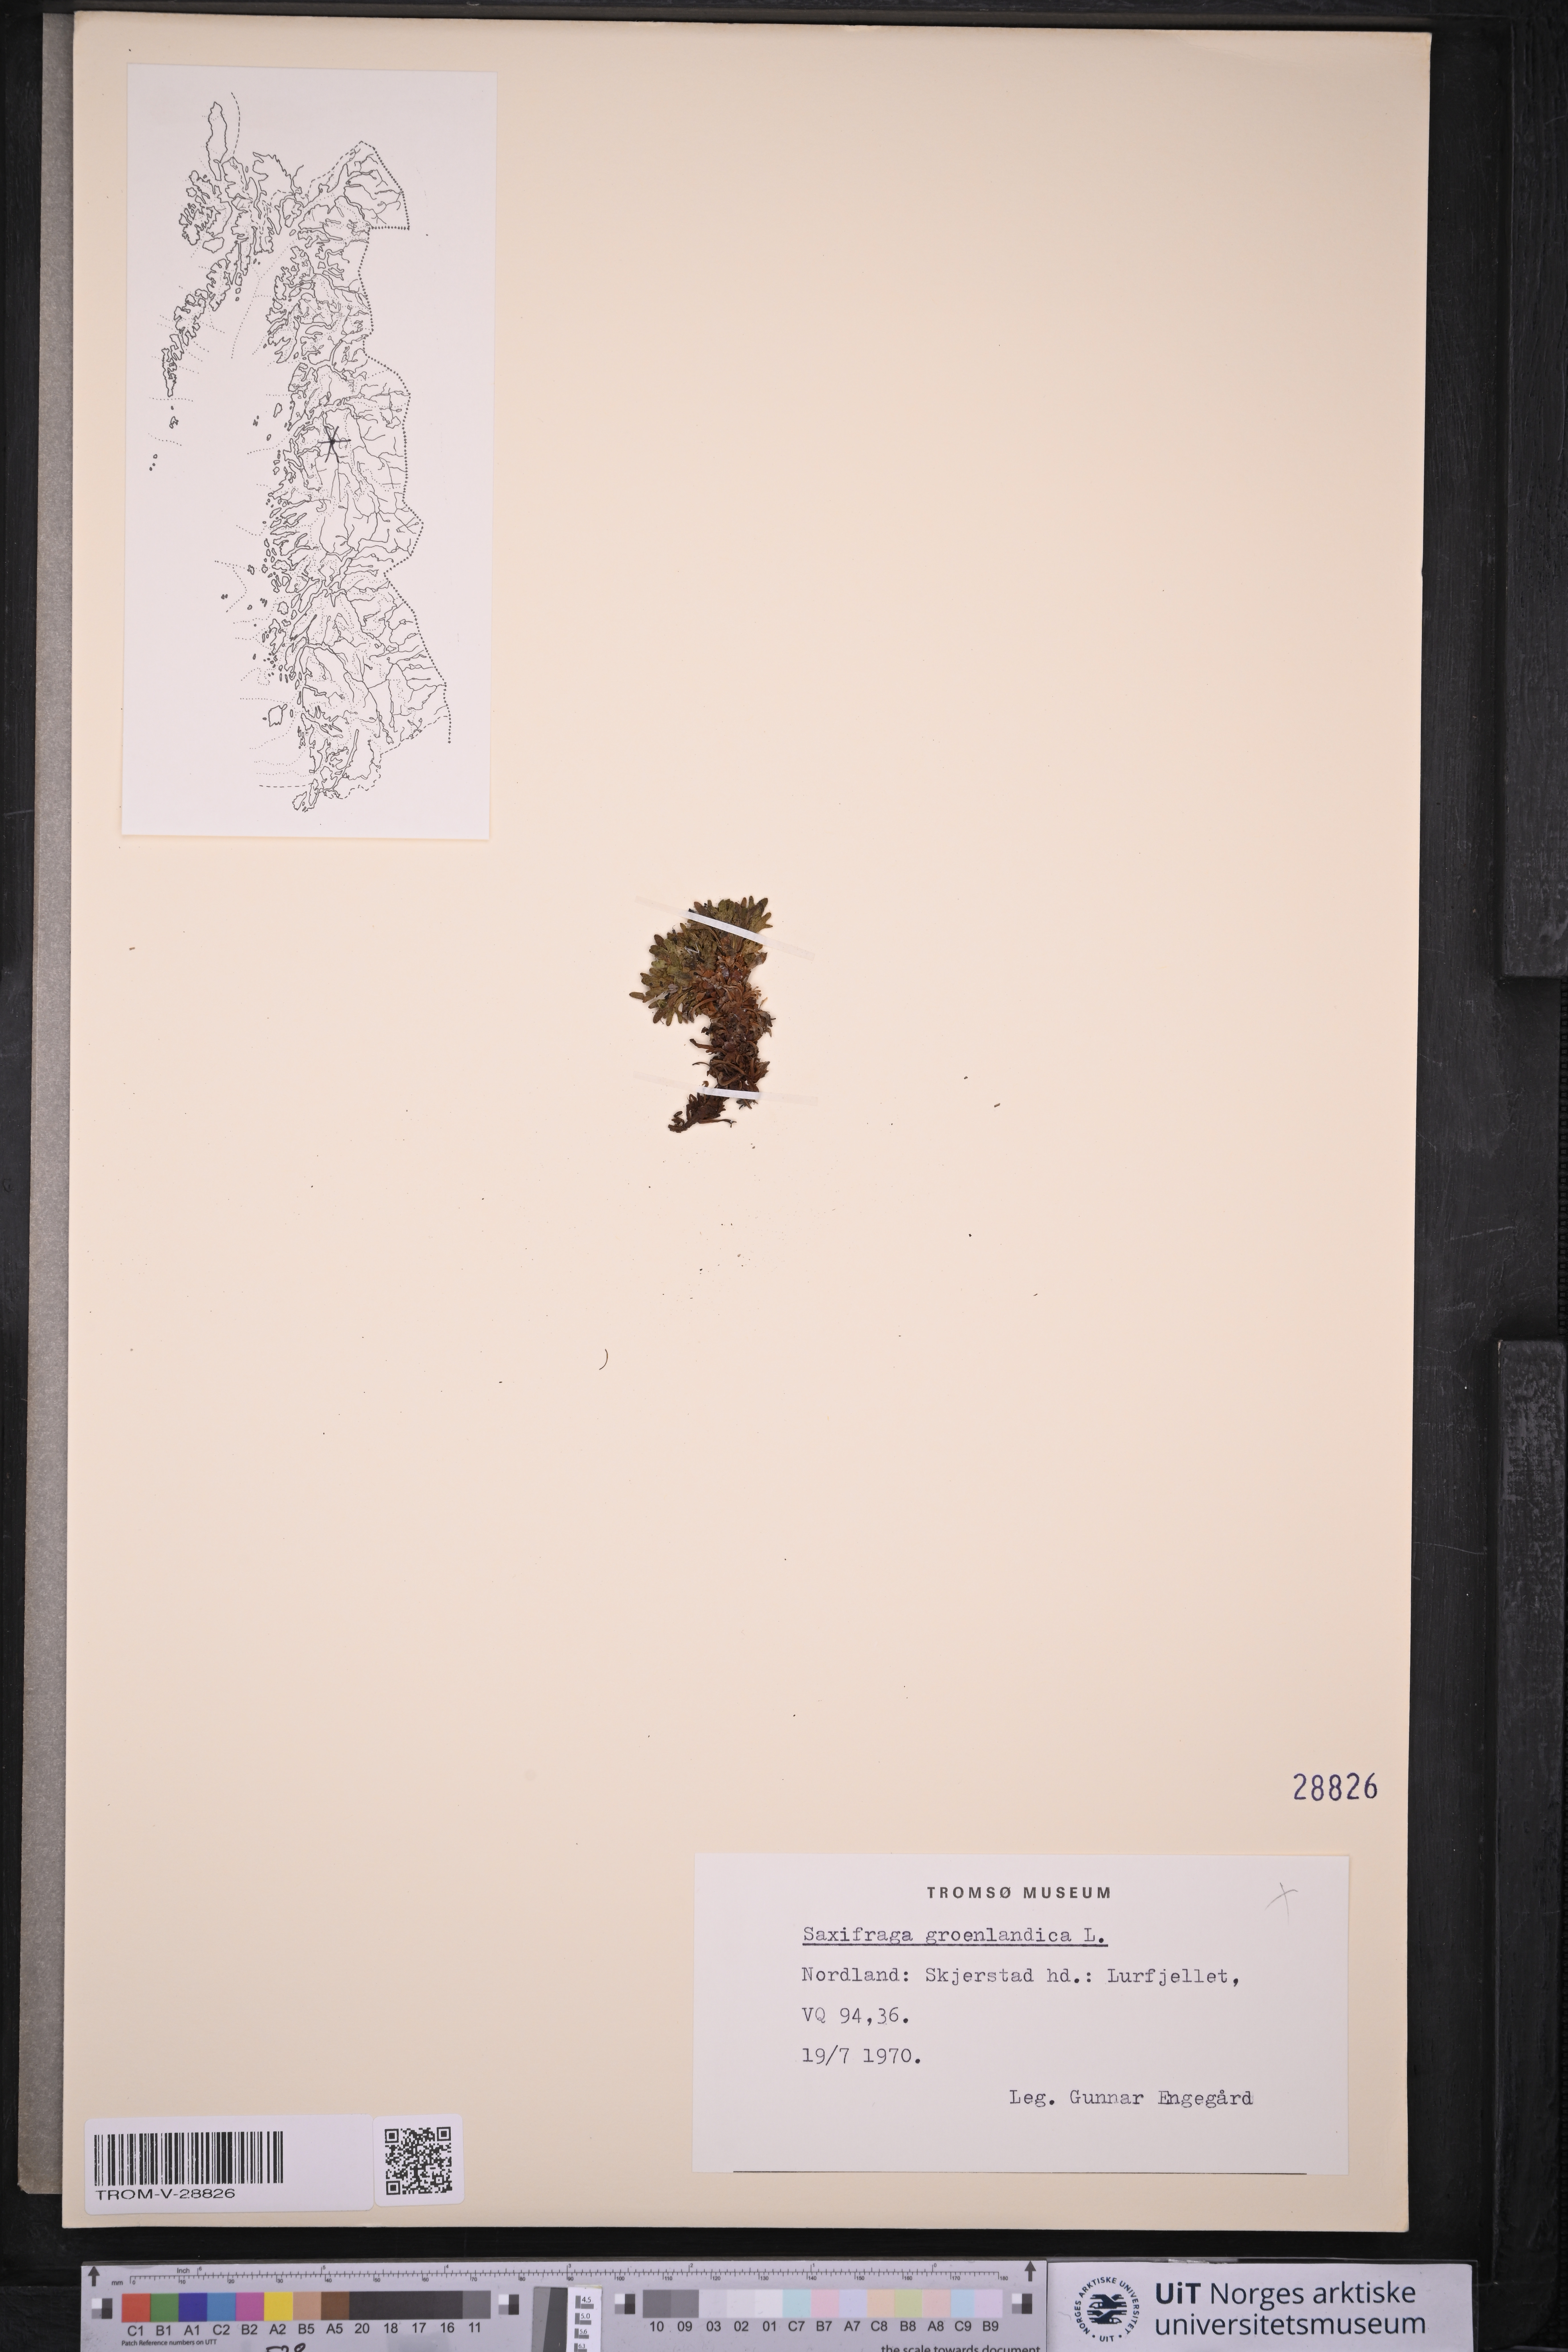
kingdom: Plantae
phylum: Tracheophyta
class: Magnoliopsida
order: Saxifragales
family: Saxifragaceae
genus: Saxifraga
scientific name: Saxifraga cespitosa
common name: Tufted saxifrage
